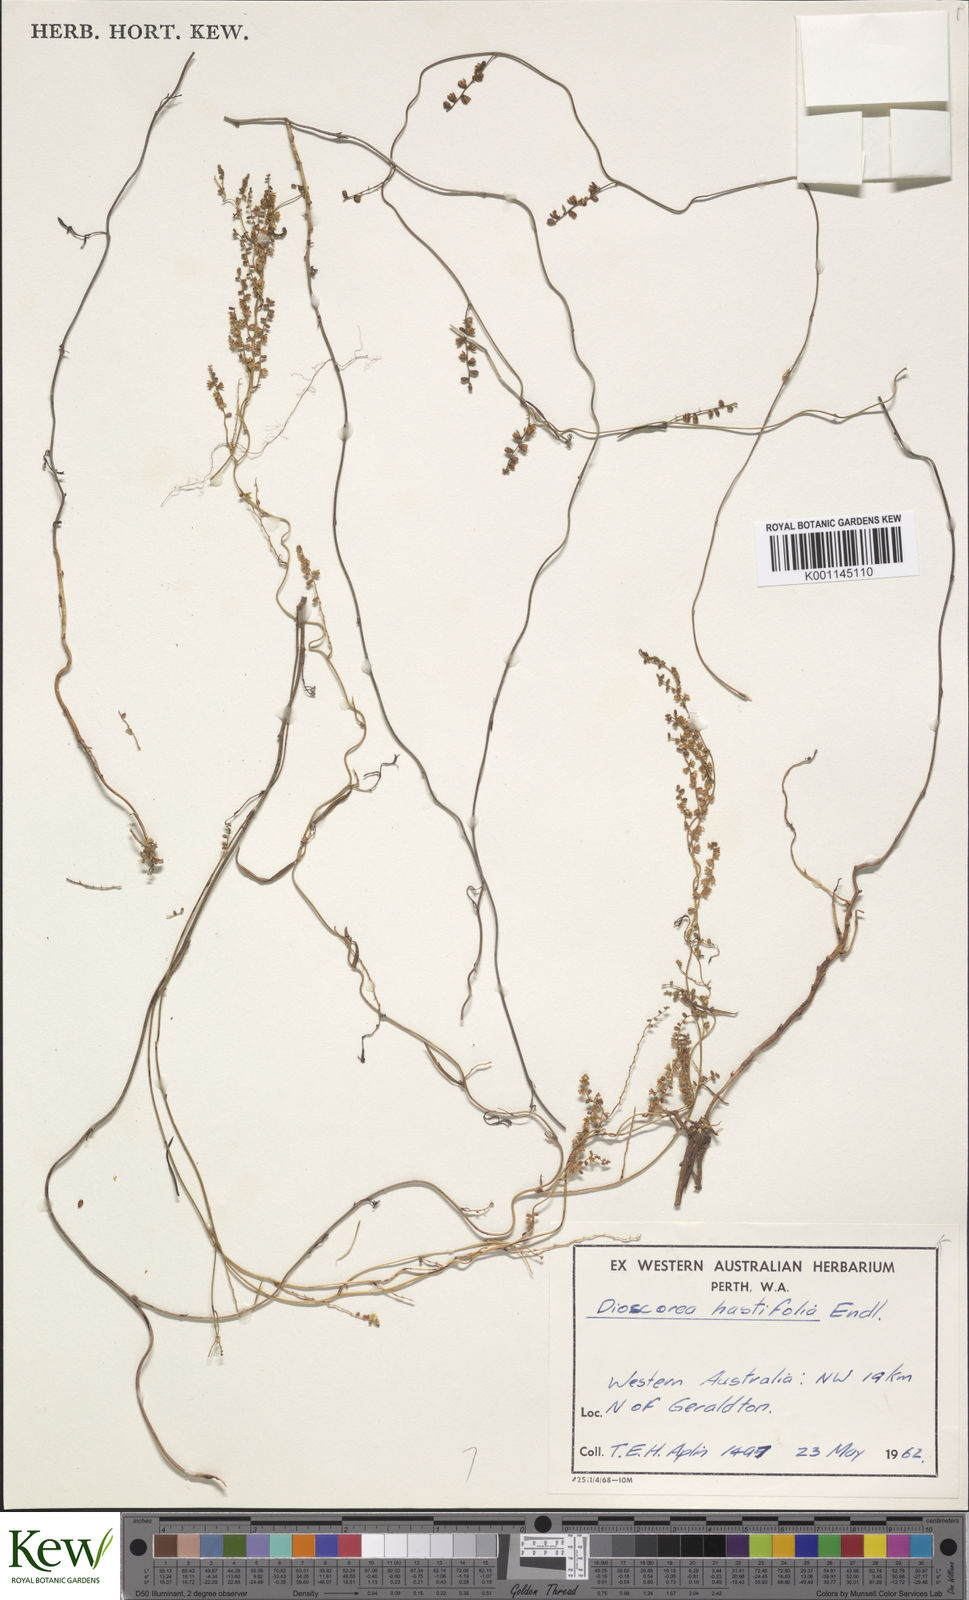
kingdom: Plantae
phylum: Tracheophyta
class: Liliopsida
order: Dioscoreales
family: Dioscoreaceae
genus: Dioscorea
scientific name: Dioscorea hastifolia
